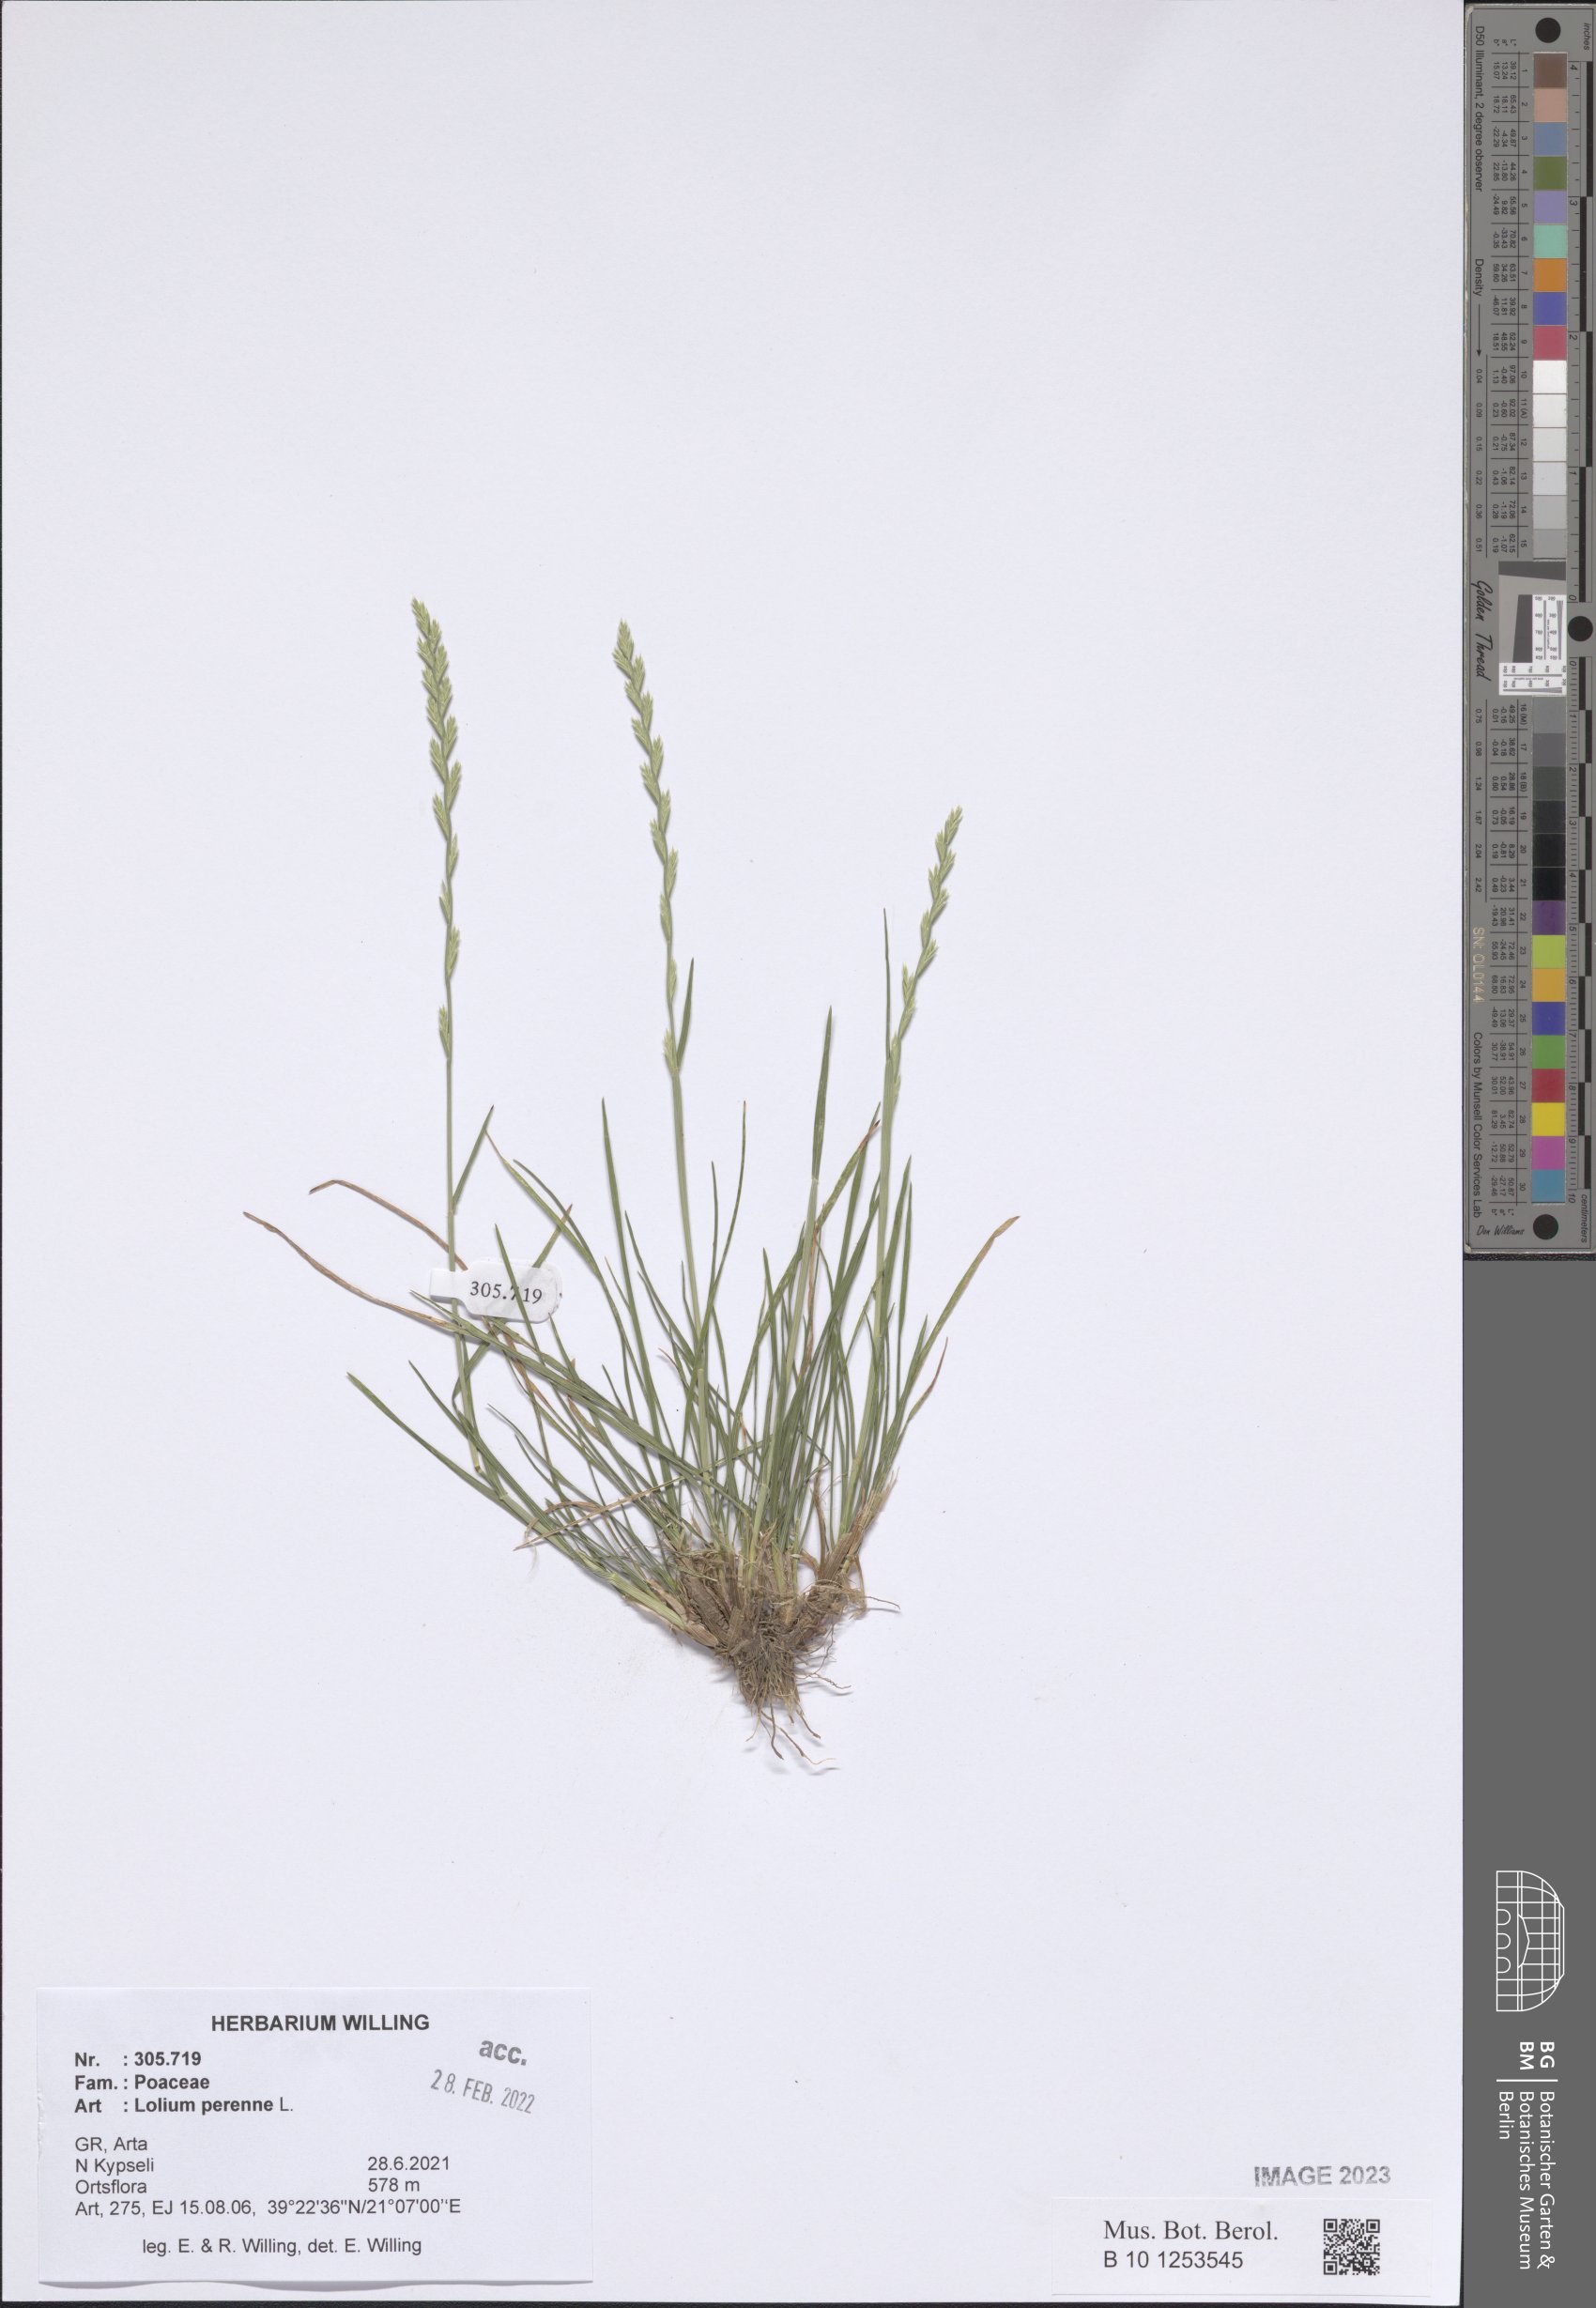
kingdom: Plantae
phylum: Tracheophyta
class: Liliopsida
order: Poales
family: Poaceae
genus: Lolium
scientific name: Lolium perenne
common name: Perennial ryegrass
